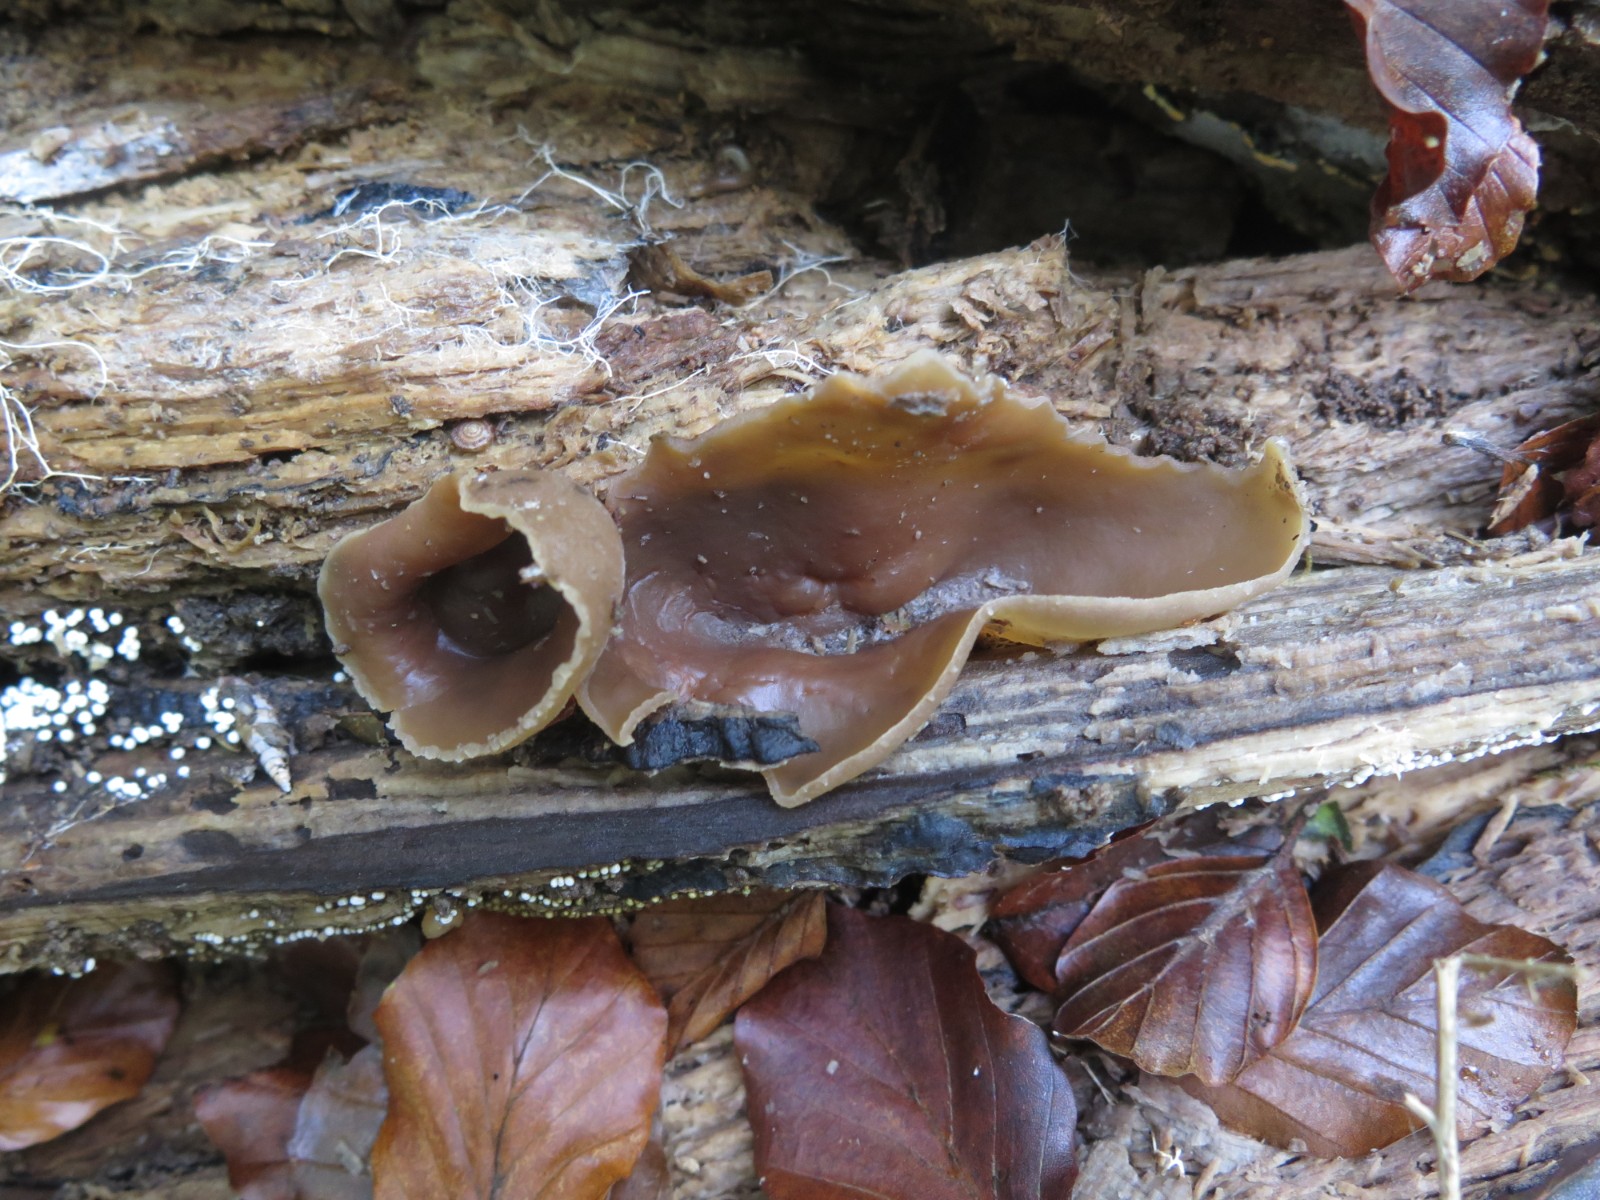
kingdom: Fungi
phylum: Ascomycota
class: Pezizomycetes
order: Pezizales
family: Pezizaceae
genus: Peziza
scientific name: Peziza varia
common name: Ved-bægersvamp
